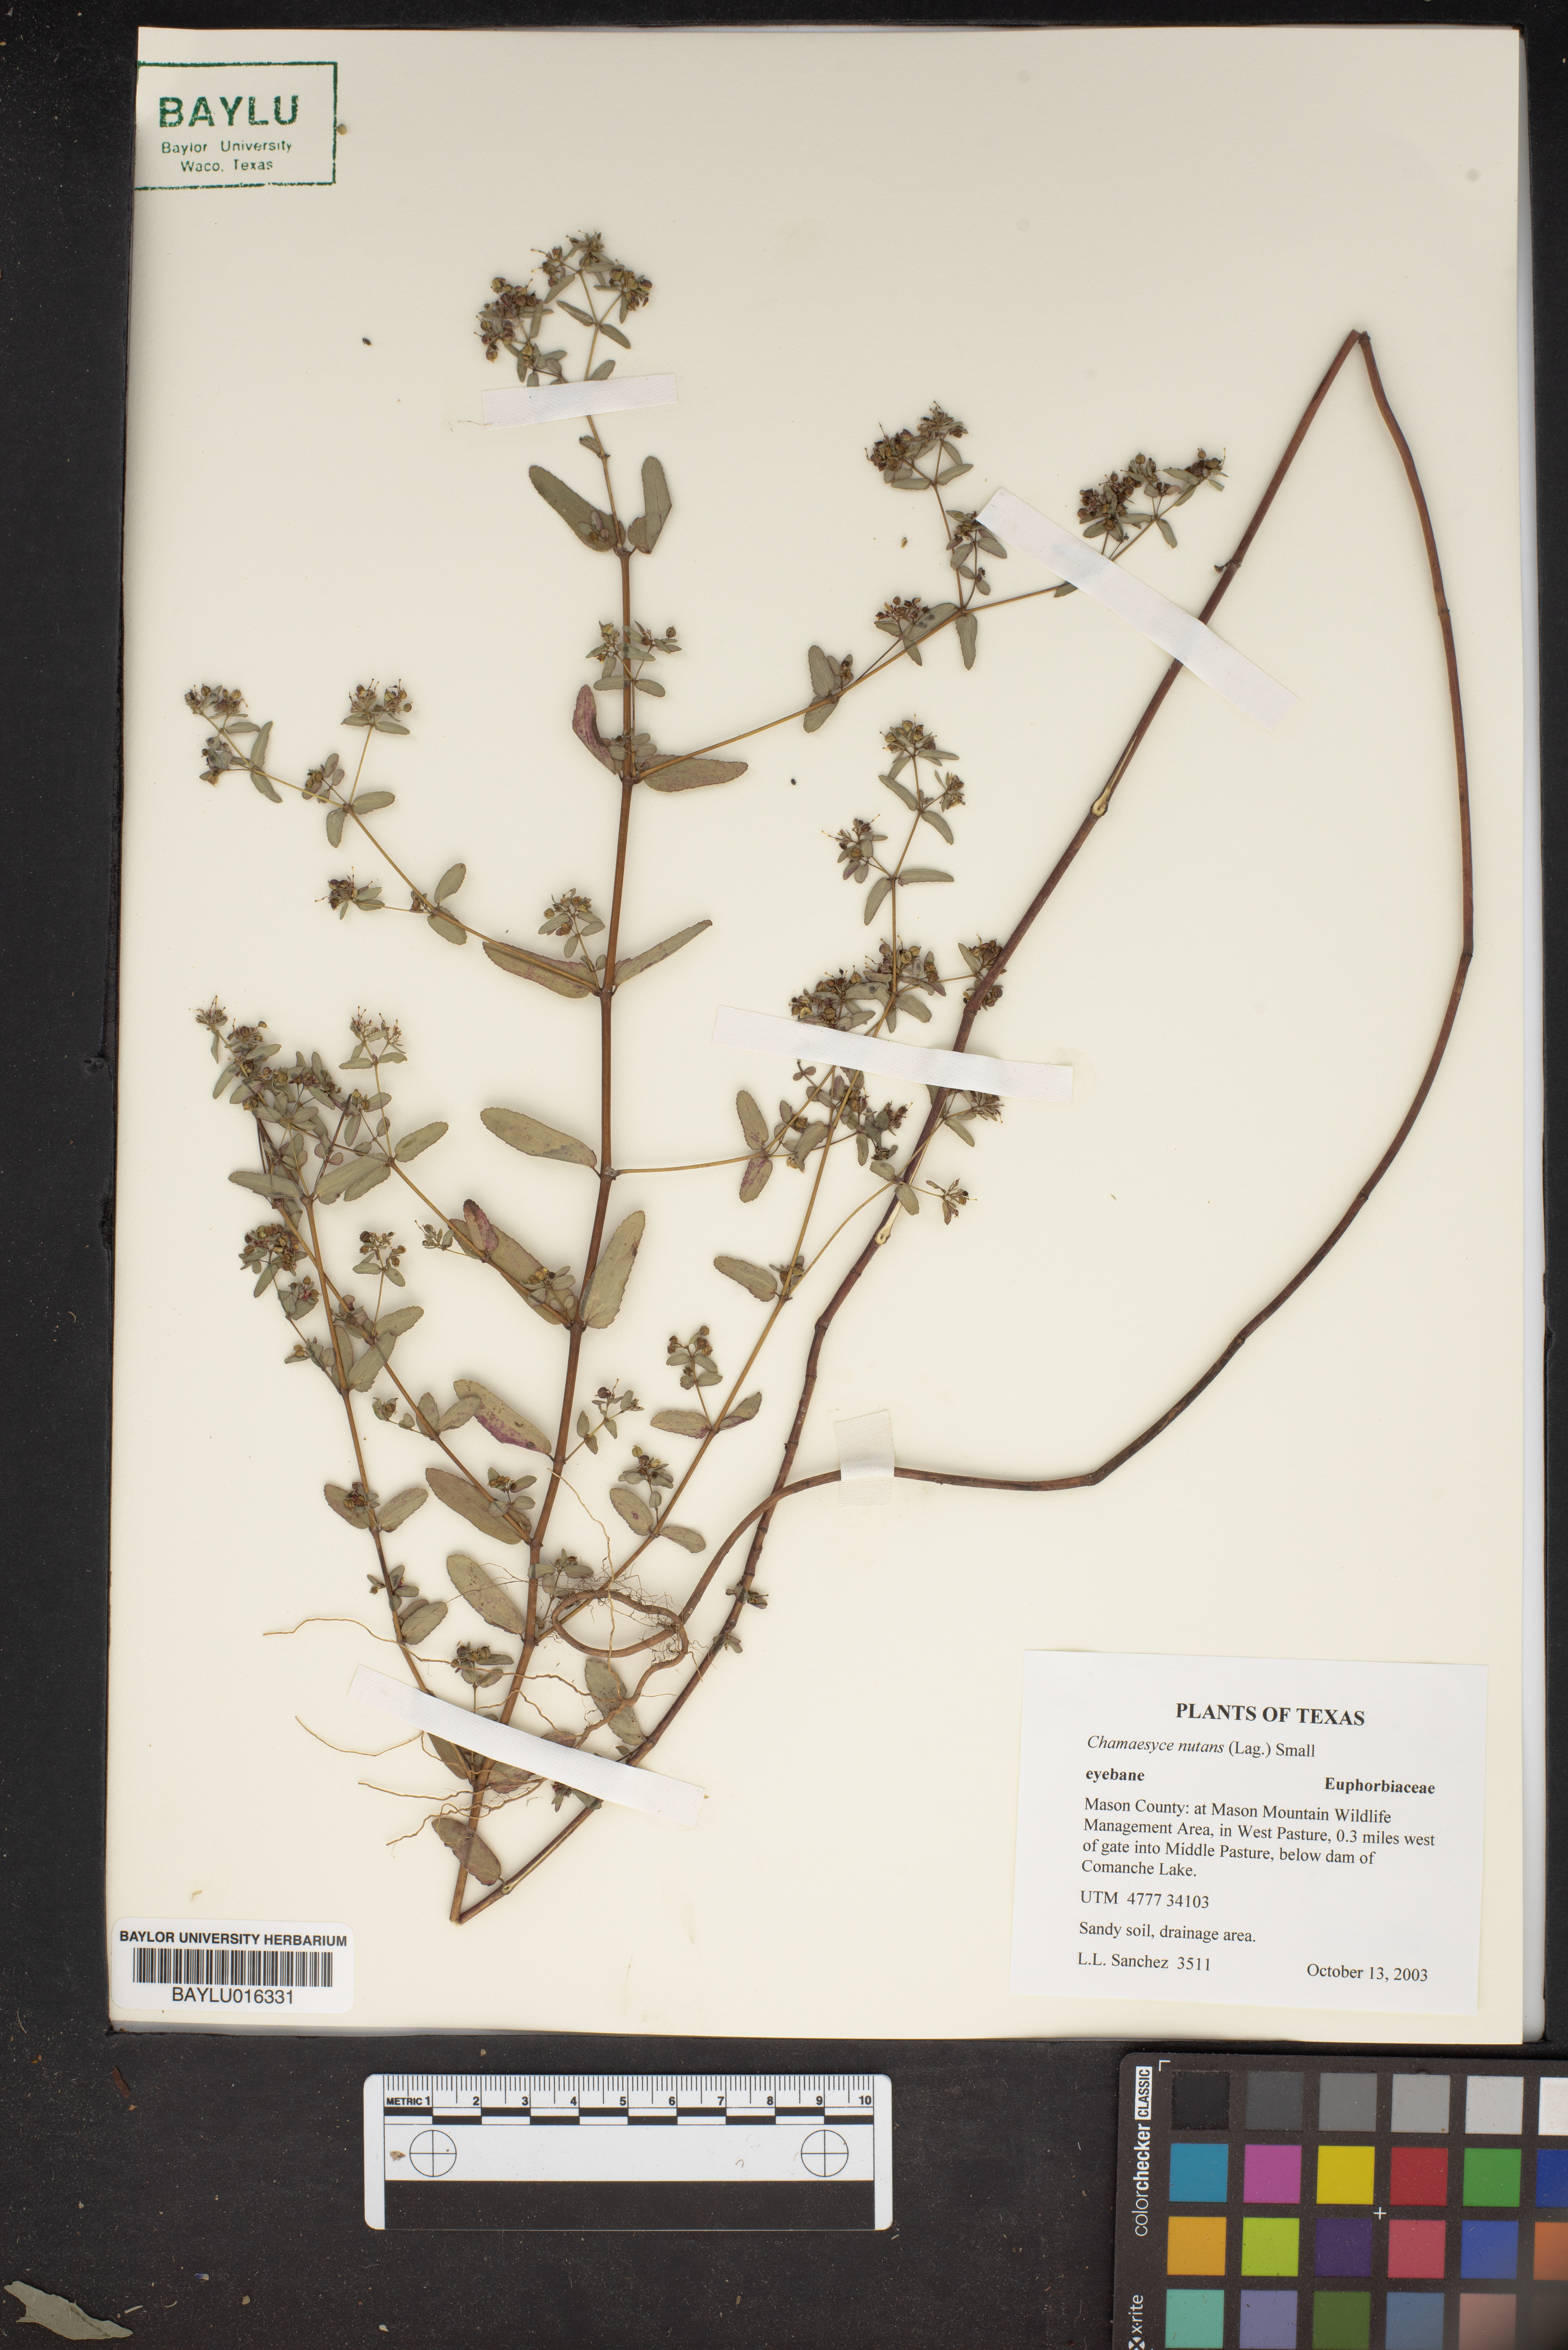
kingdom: Plantae
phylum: Tracheophyta
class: Magnoliopsida
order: Malpighiales
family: Euphorbiaceae
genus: Euphorbia
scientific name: Euphorbia nutans
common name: Eyebane
